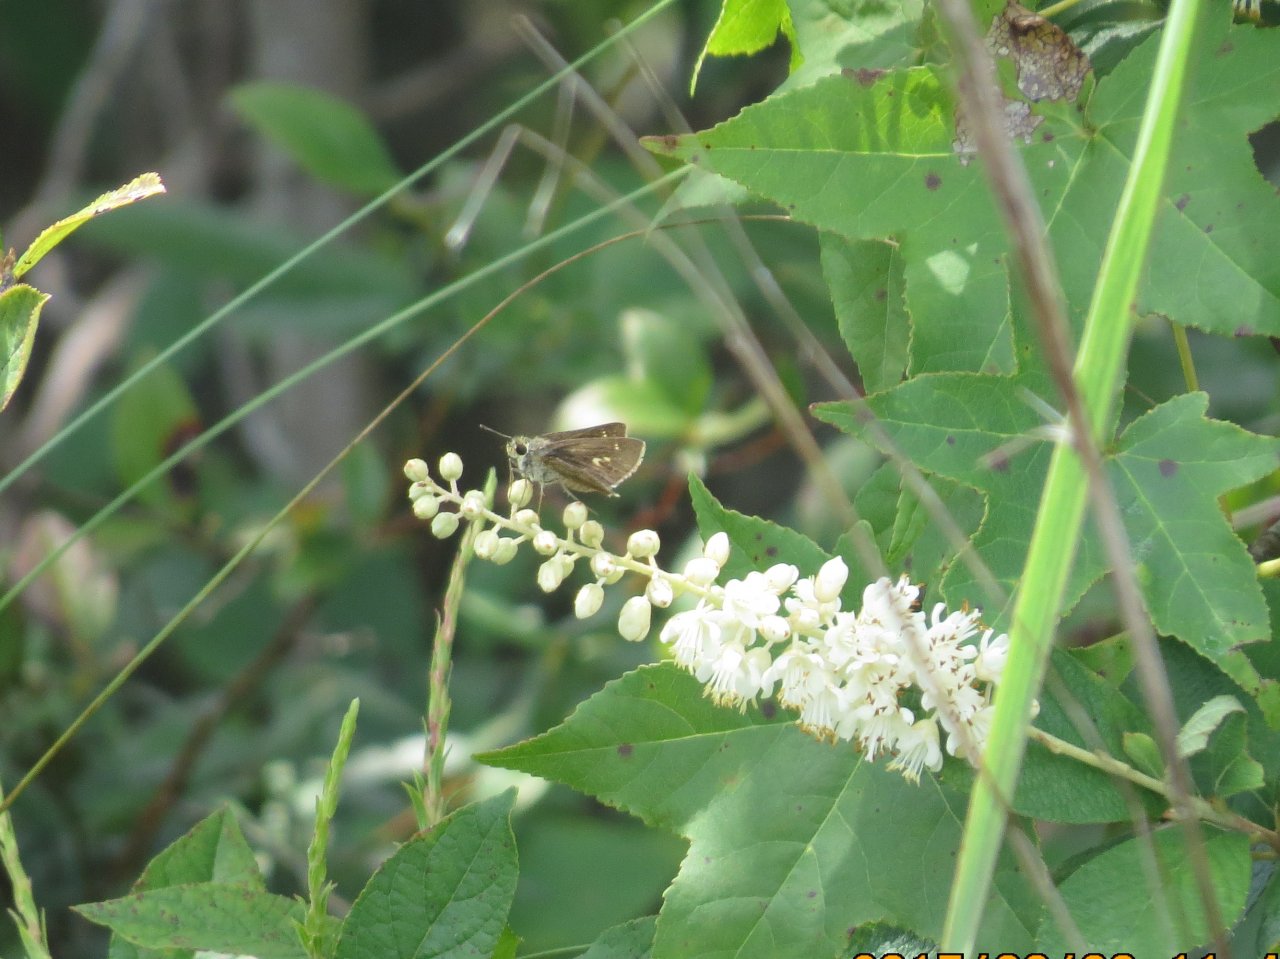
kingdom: Animalia
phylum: Arthropoda
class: Insecta
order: Lepidoptera
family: Hesperiidae
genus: Polites
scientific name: Polites vibex
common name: Whirlabout
